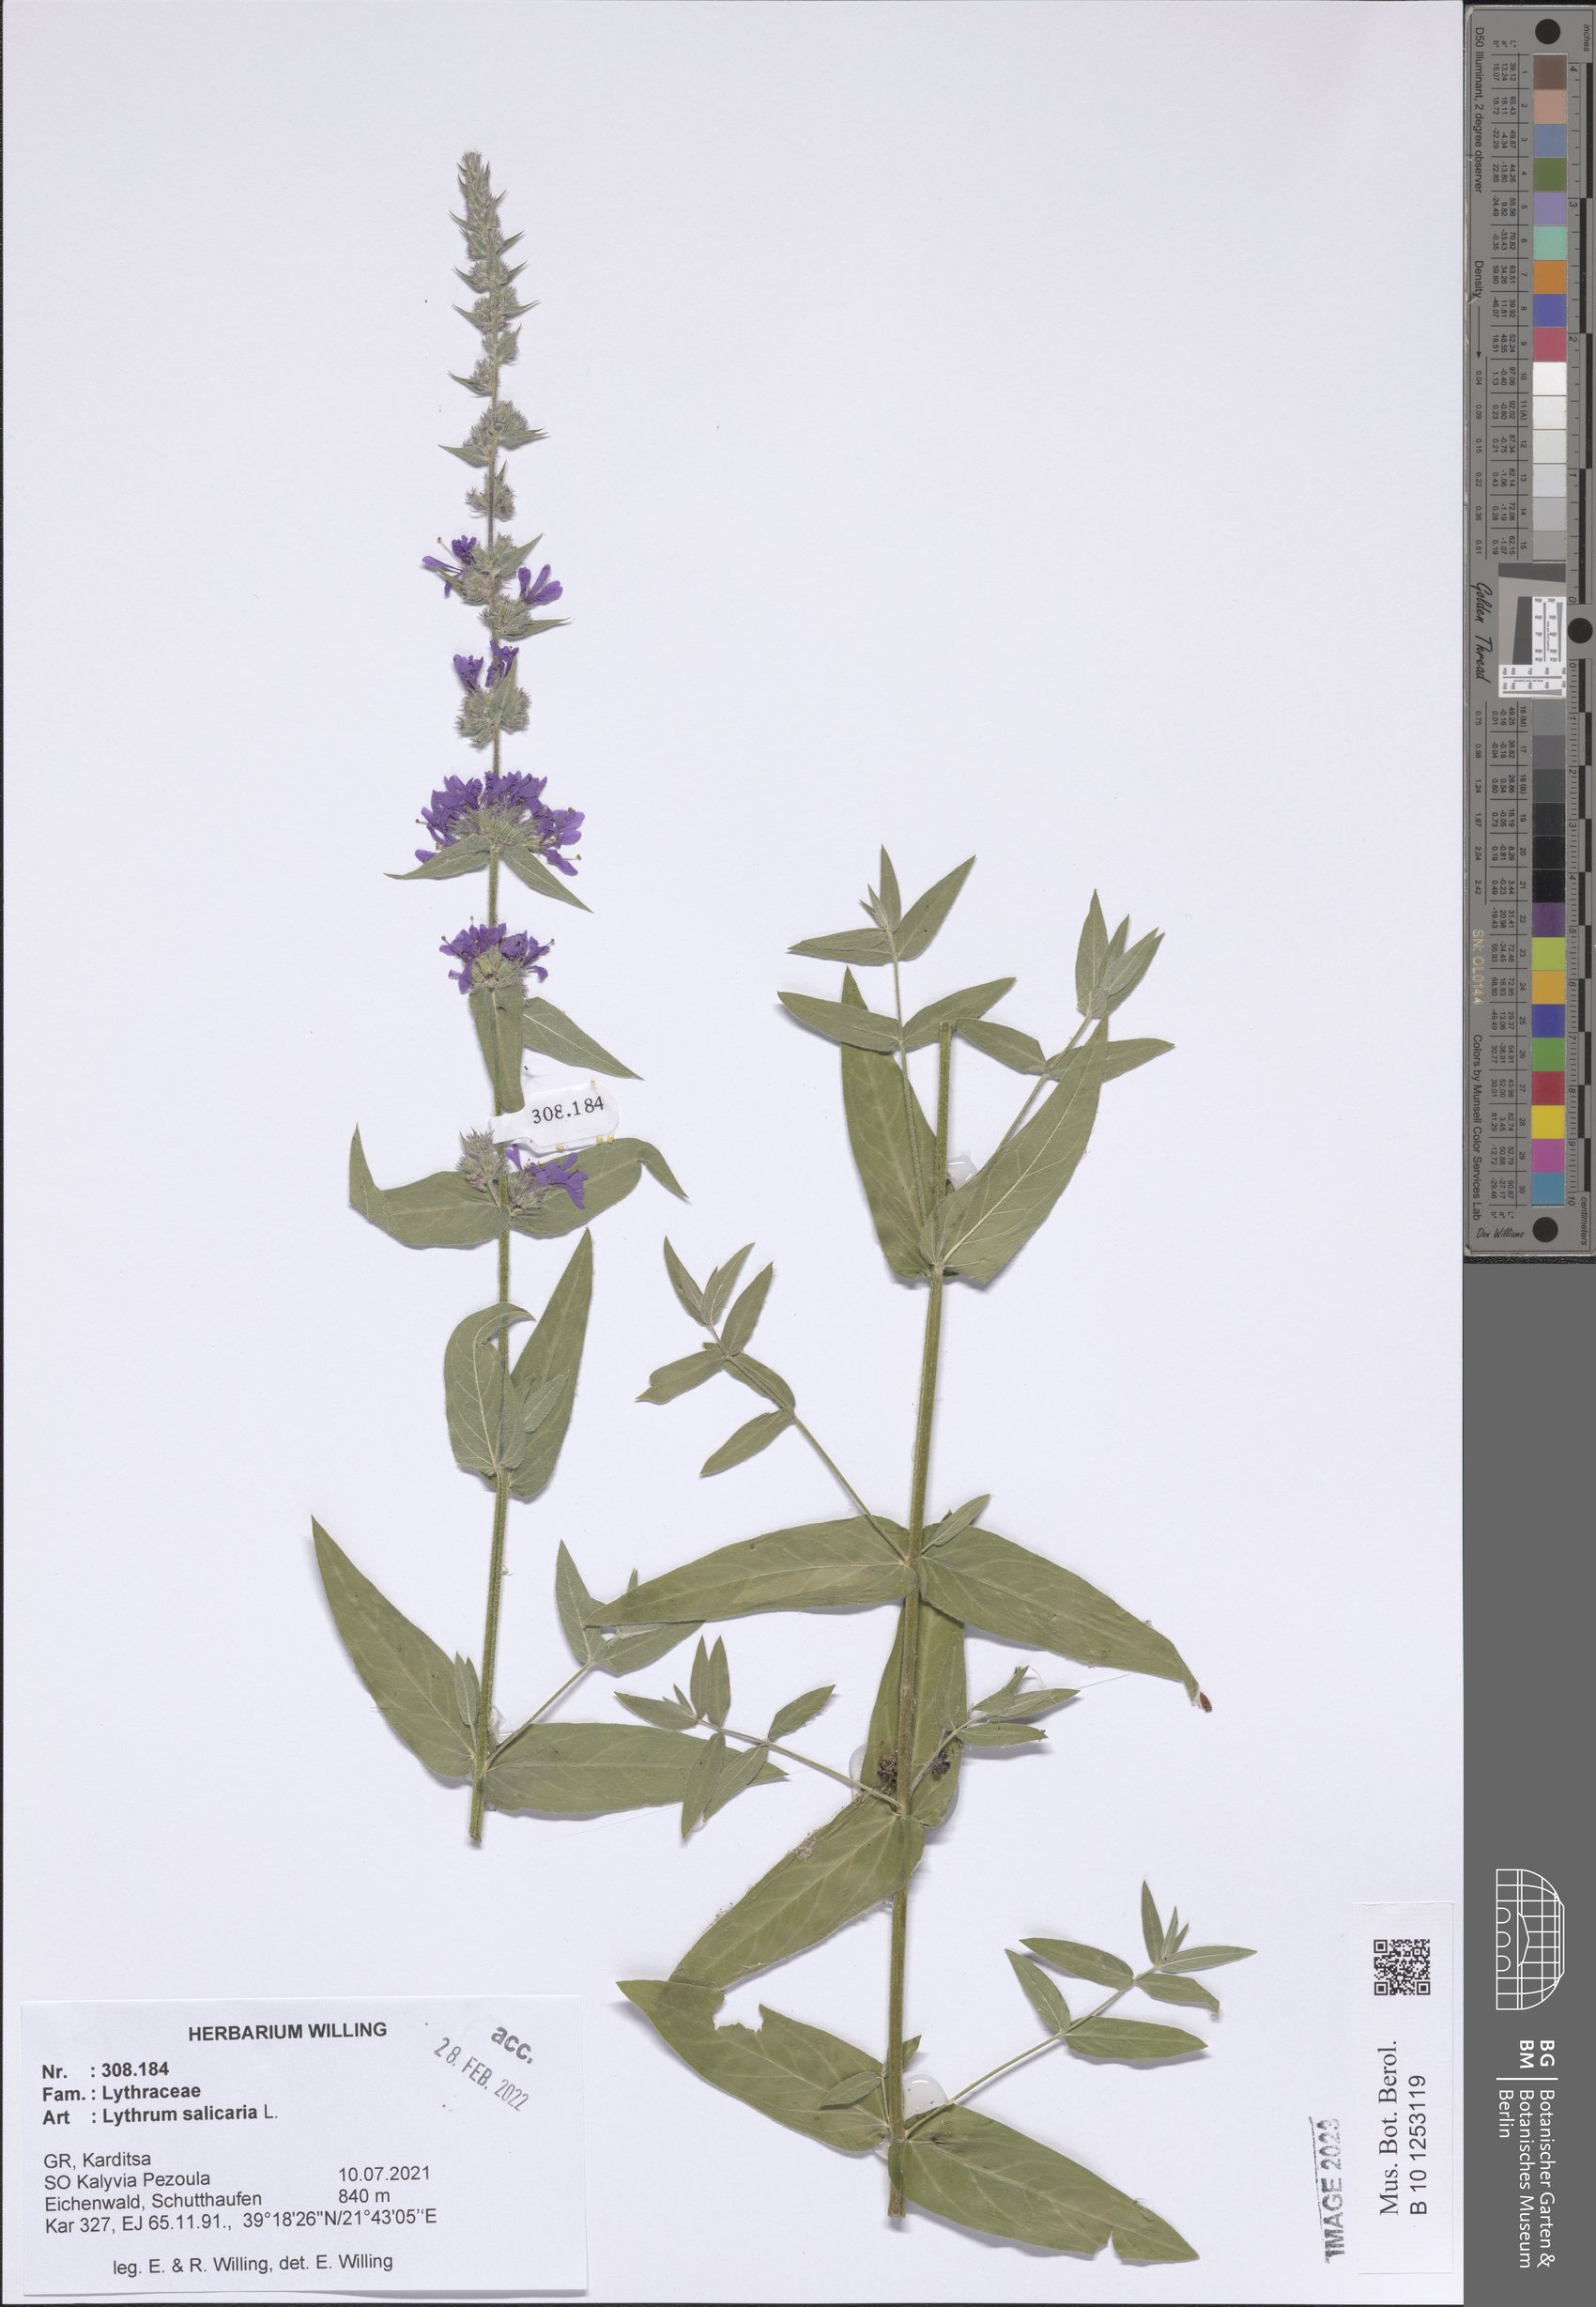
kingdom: Plantae
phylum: Tracheophyta
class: Magnoliopsida
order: Myrtales
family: Lythraceae
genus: Lythrum
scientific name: Lythrum salicaria
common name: Purple loosestrife
